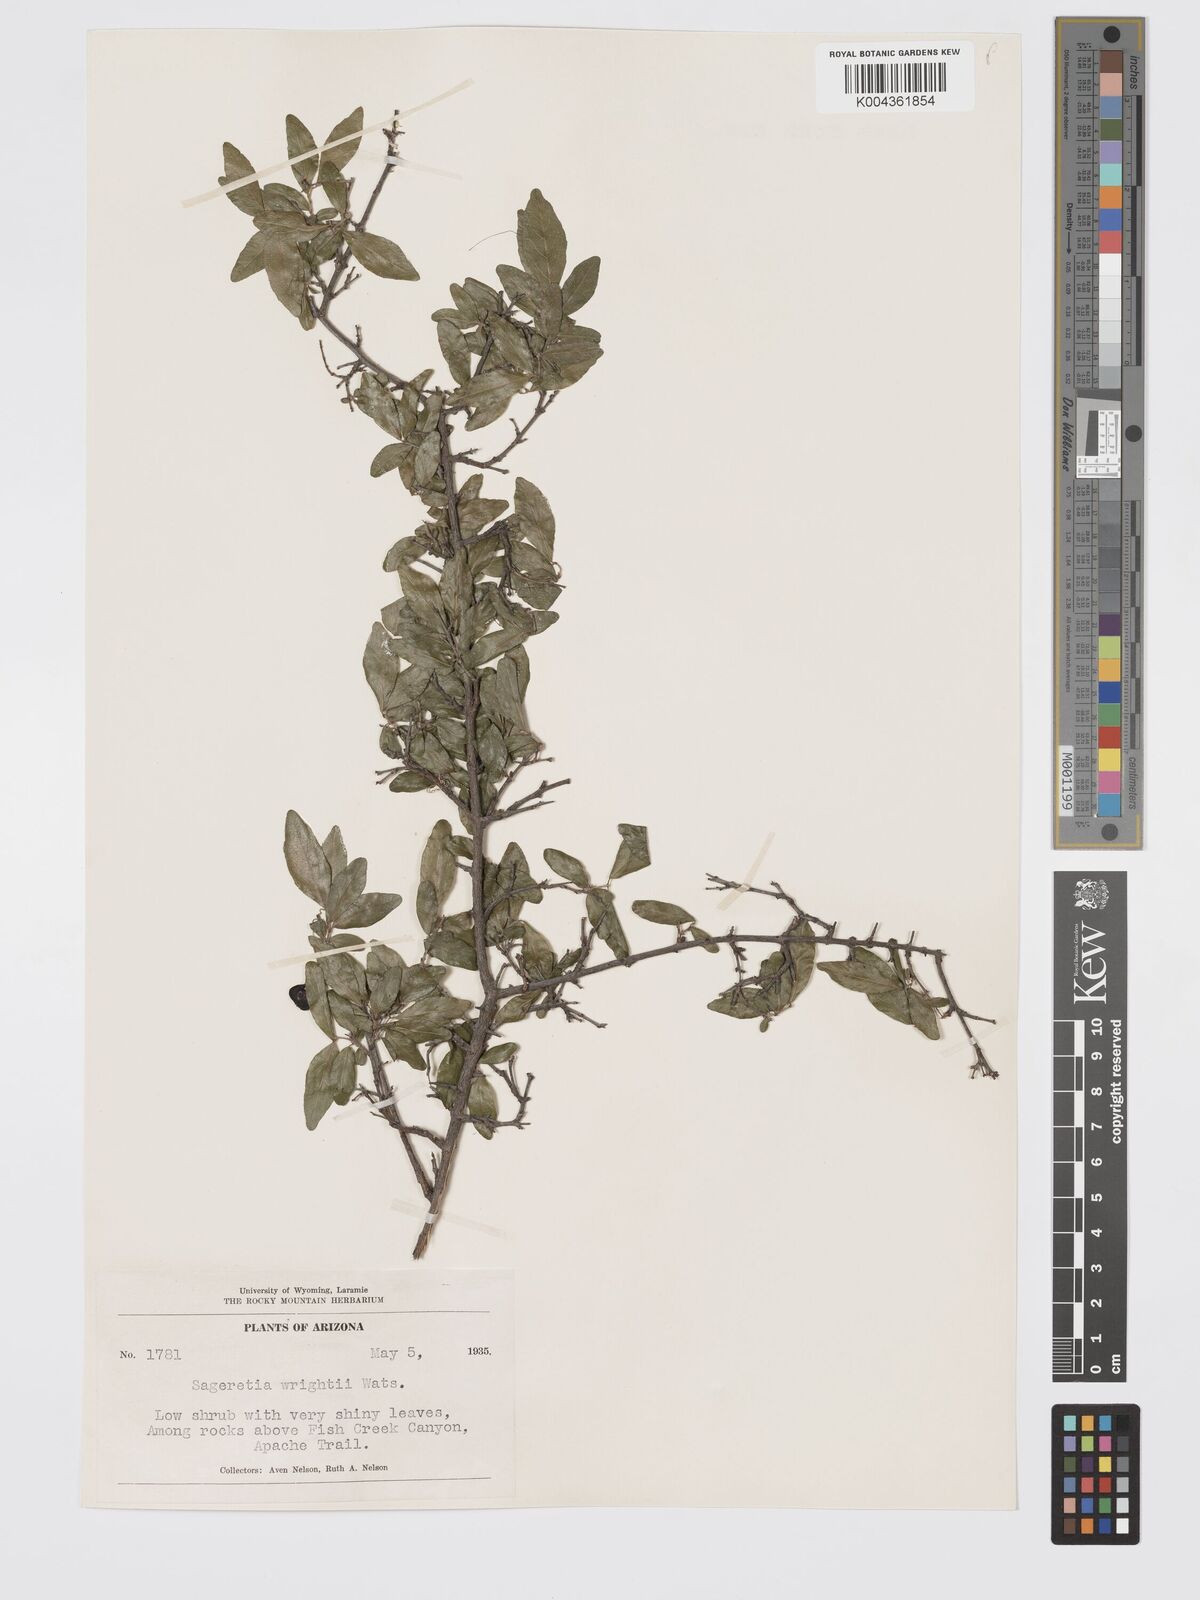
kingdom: Plantae
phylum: Tracheophyta
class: Magnoliopsida
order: Rosales
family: Rhamnaceae
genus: Sageretia
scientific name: Sageretia wrightii
